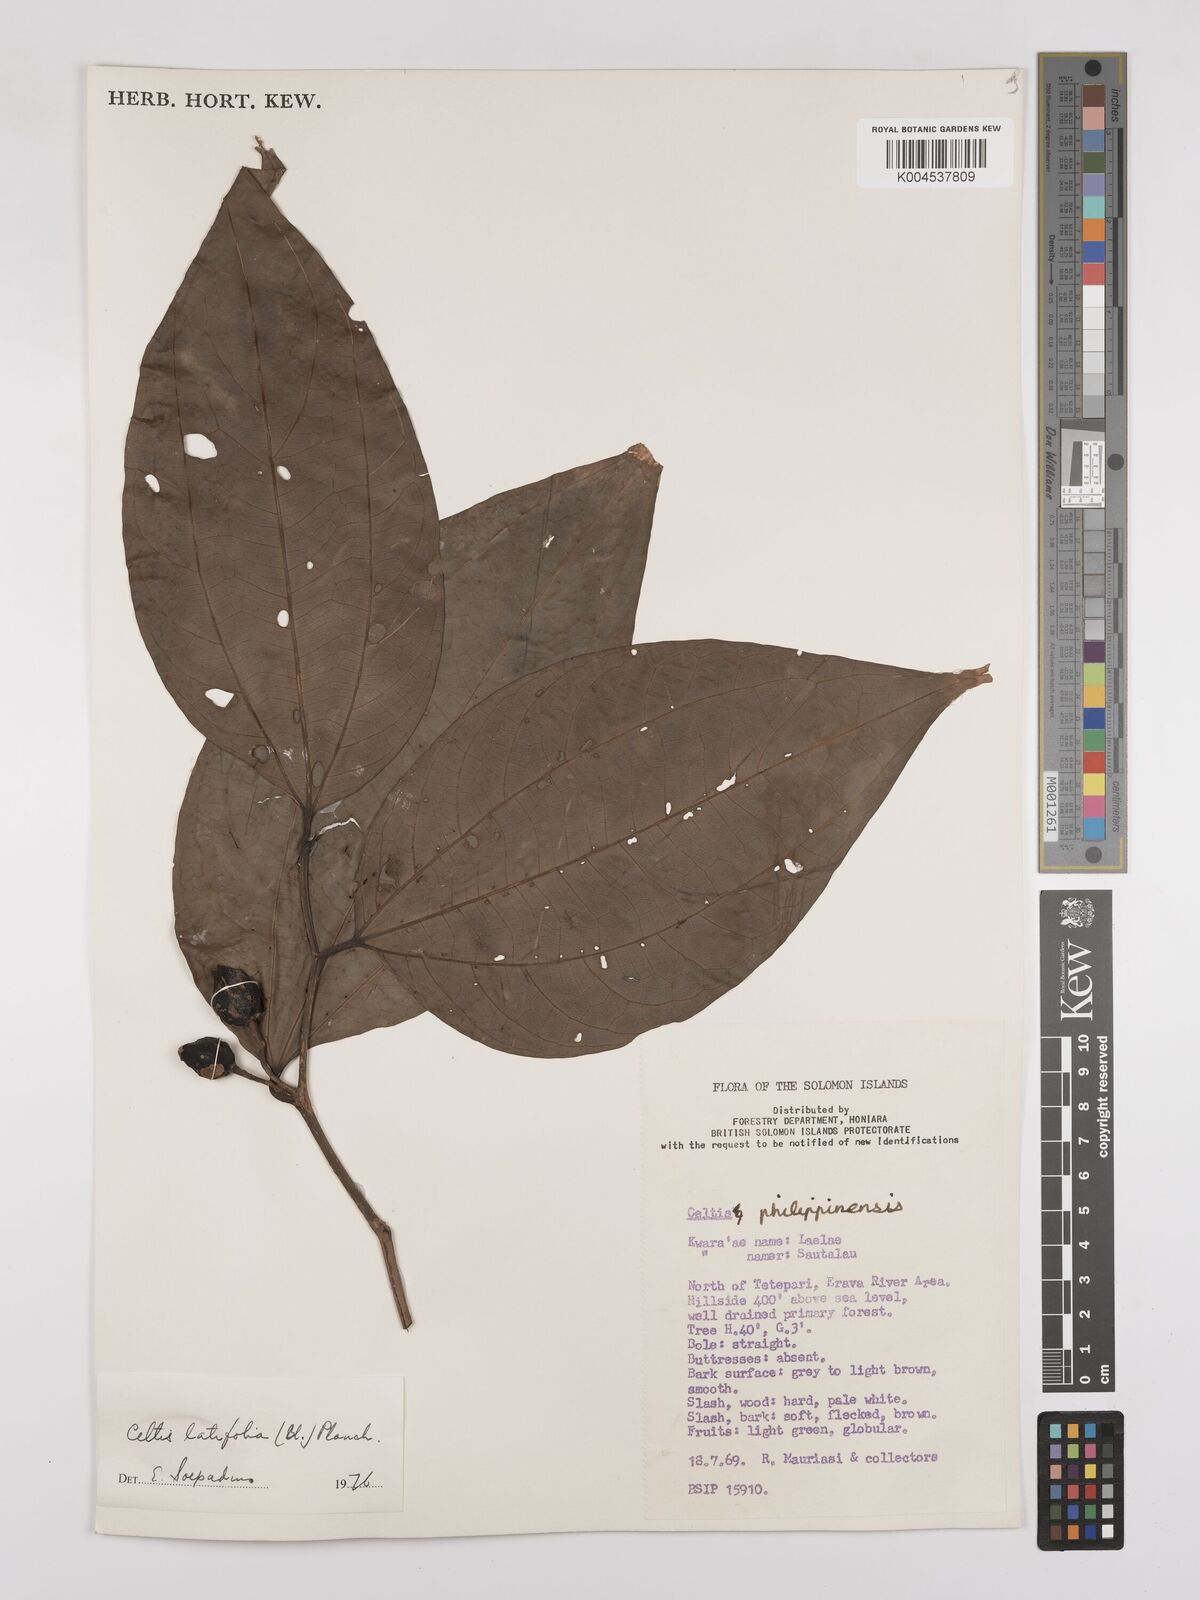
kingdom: Plantae
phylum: Tracheophyta
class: Magnoliopsida
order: Rosales
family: Cannabaceae
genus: Celtis
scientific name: Celtis latifolia
